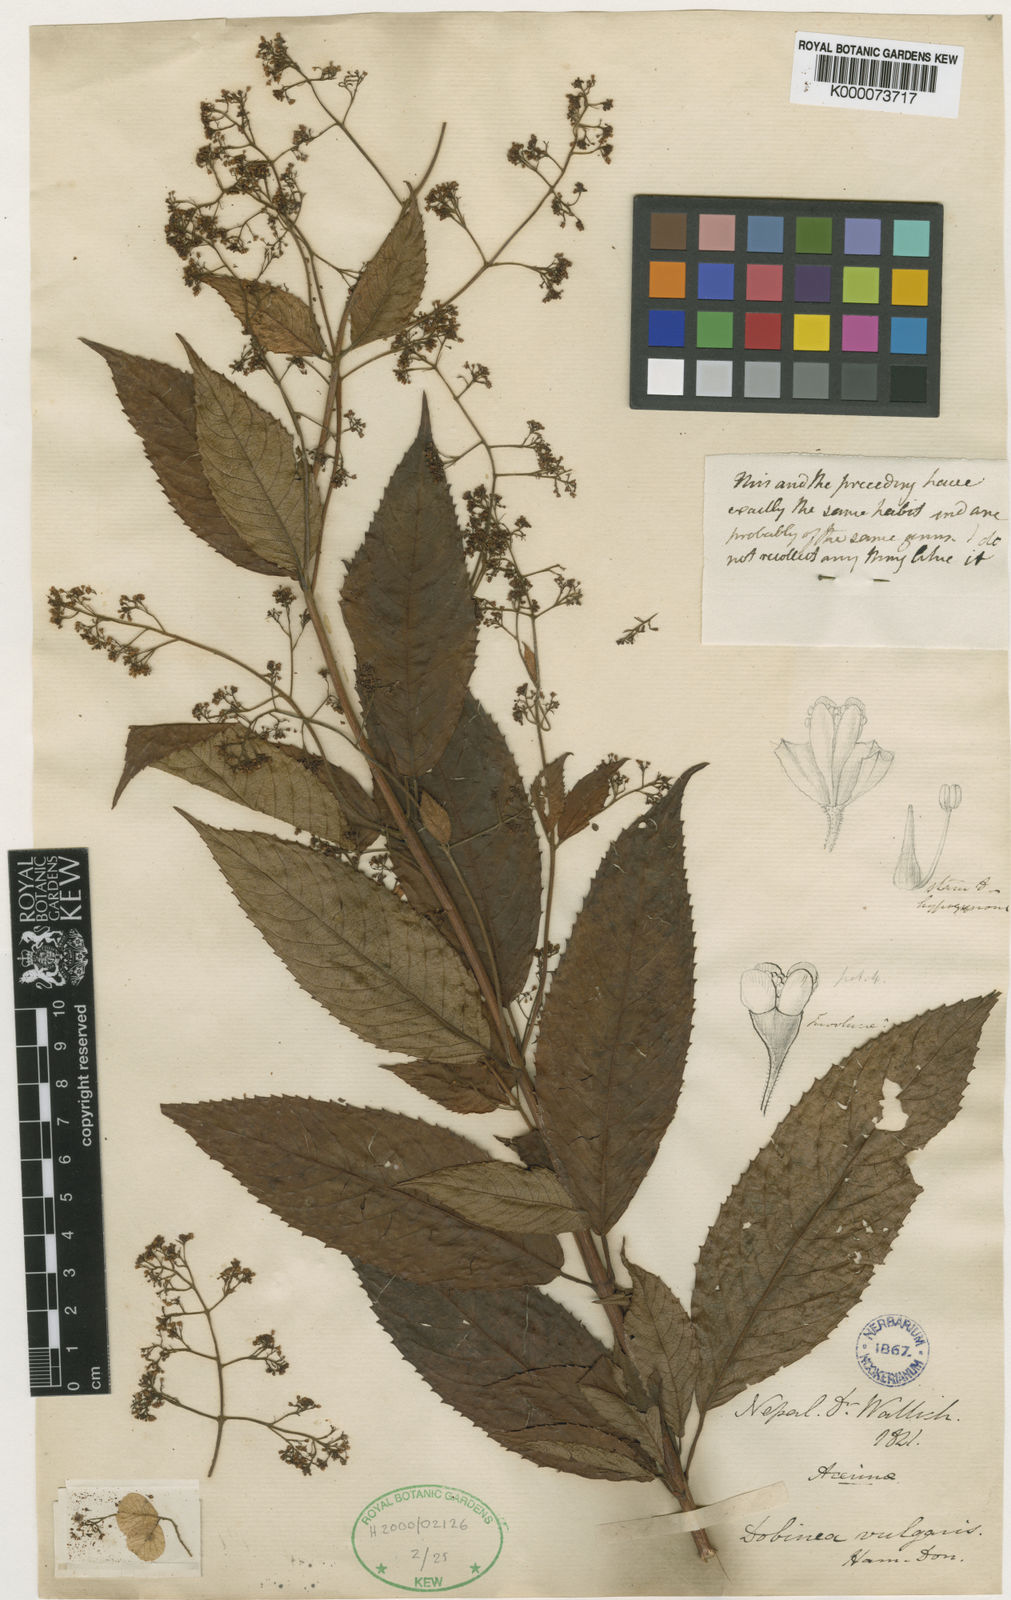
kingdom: Plantae
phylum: Tracheophyta
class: Magnoliopsida
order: Sapindales
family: Anacardiaceae
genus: Dobinea
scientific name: Dobinea
